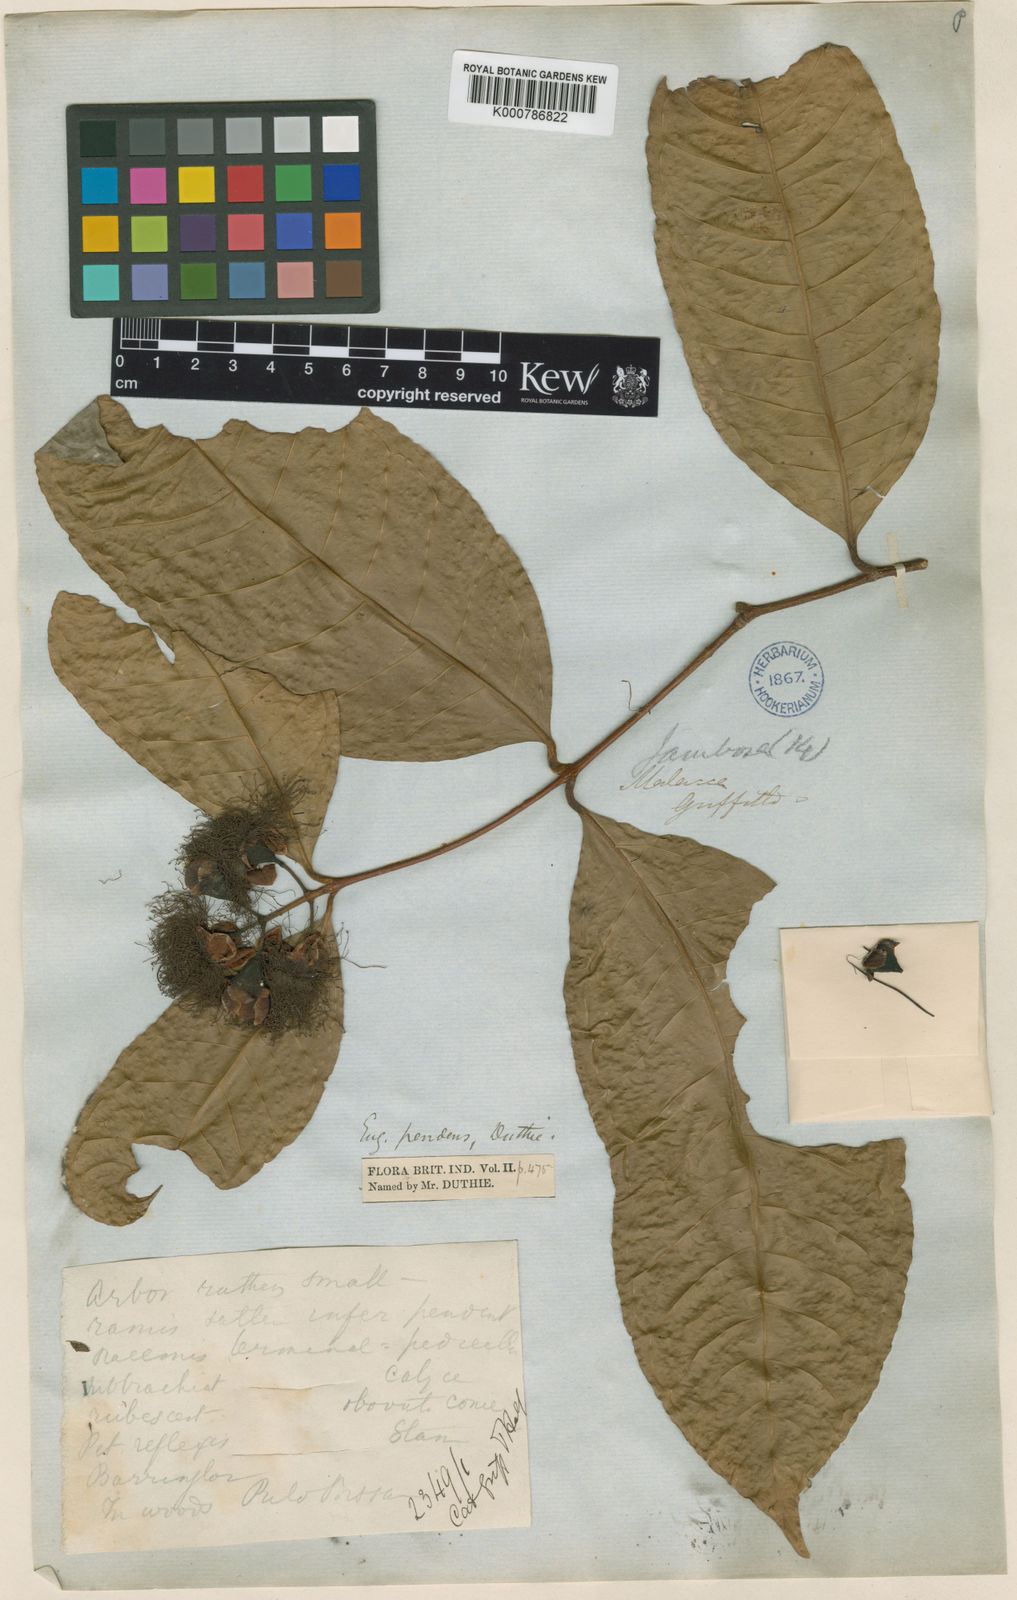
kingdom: Plantae
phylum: Tracheophyta
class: Magnoliopsida
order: Myrtales
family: Myrtaceae
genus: Syzygium
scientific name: Syzygium tiumanense
